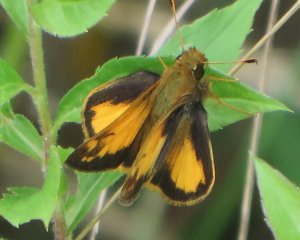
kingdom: Animalia
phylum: Arthropoda
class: Insecta
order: Lepidoptera
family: Hesperiidae
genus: Lon
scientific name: Lon zabulon
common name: Zabulon Skipper
